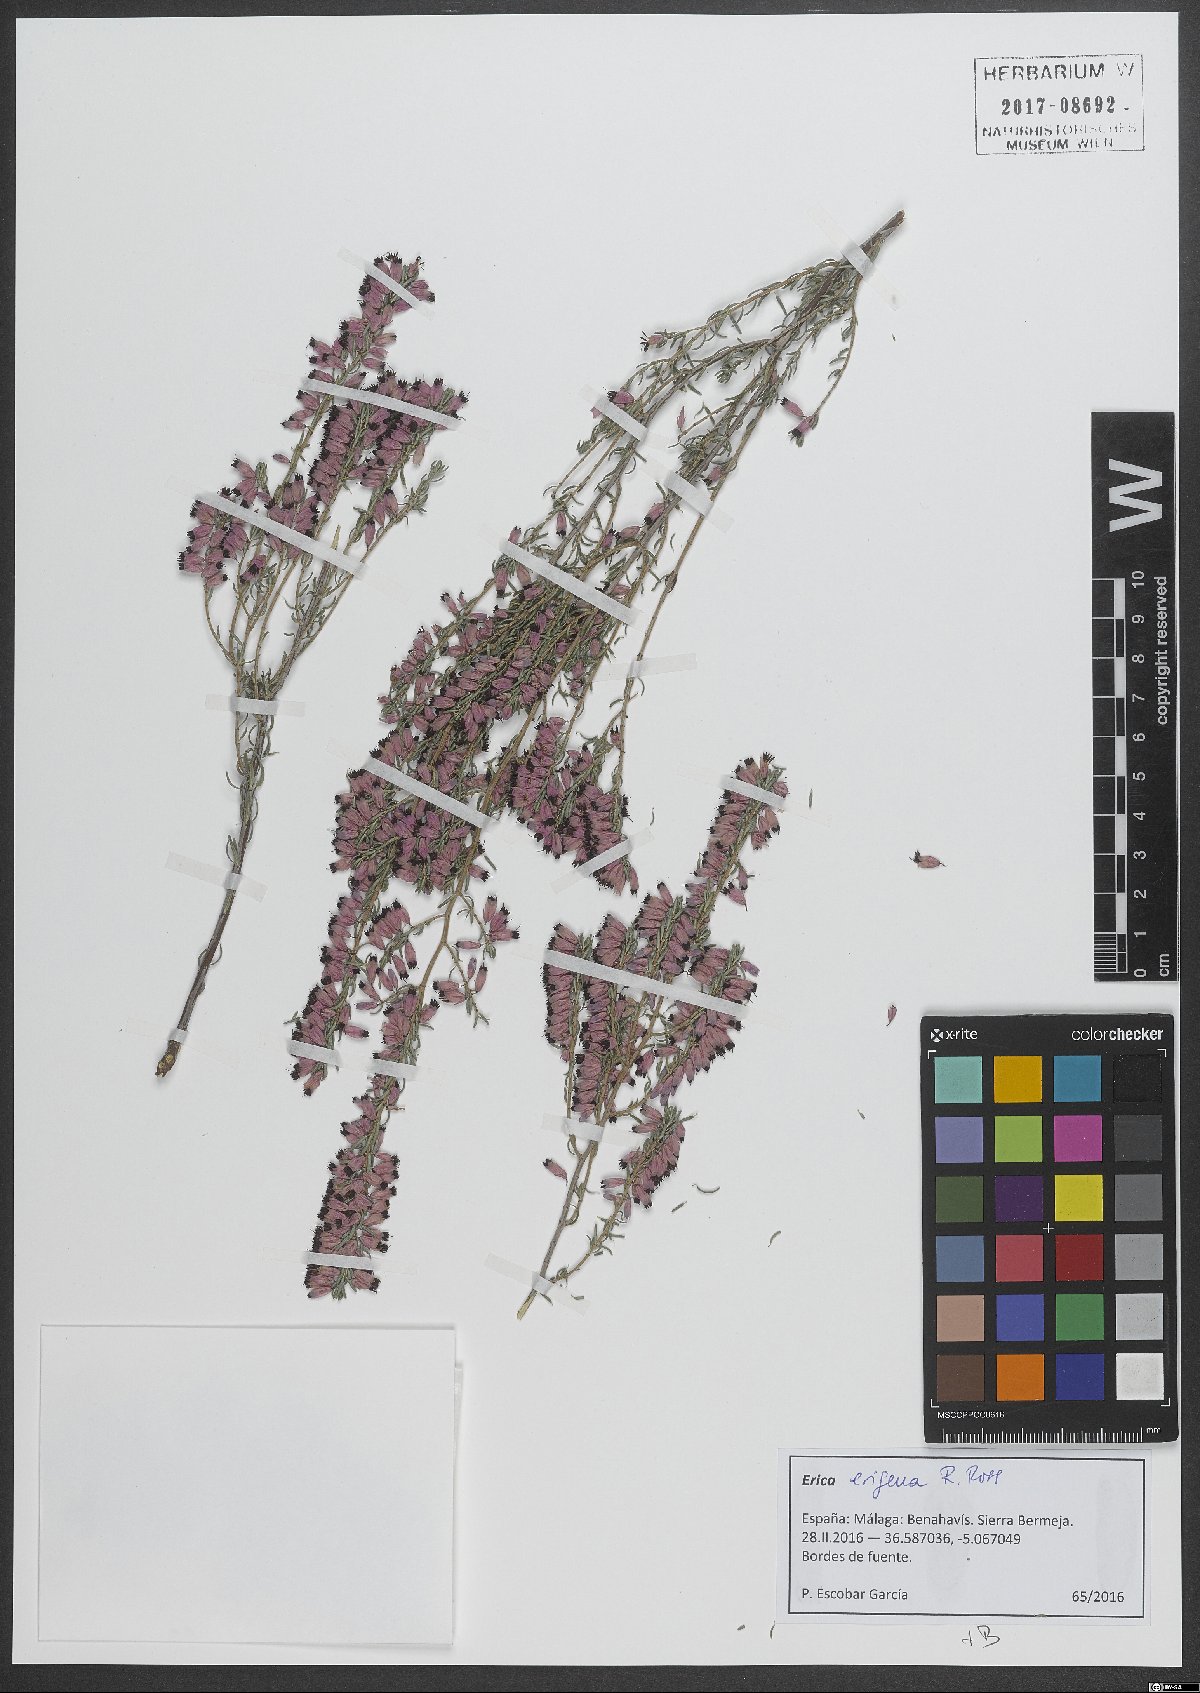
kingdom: Plantae
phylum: Tracheophyta
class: Magnoliopsida
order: Ericales
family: Ericaceae
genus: Erica
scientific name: Erica erigena
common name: Irish heath
